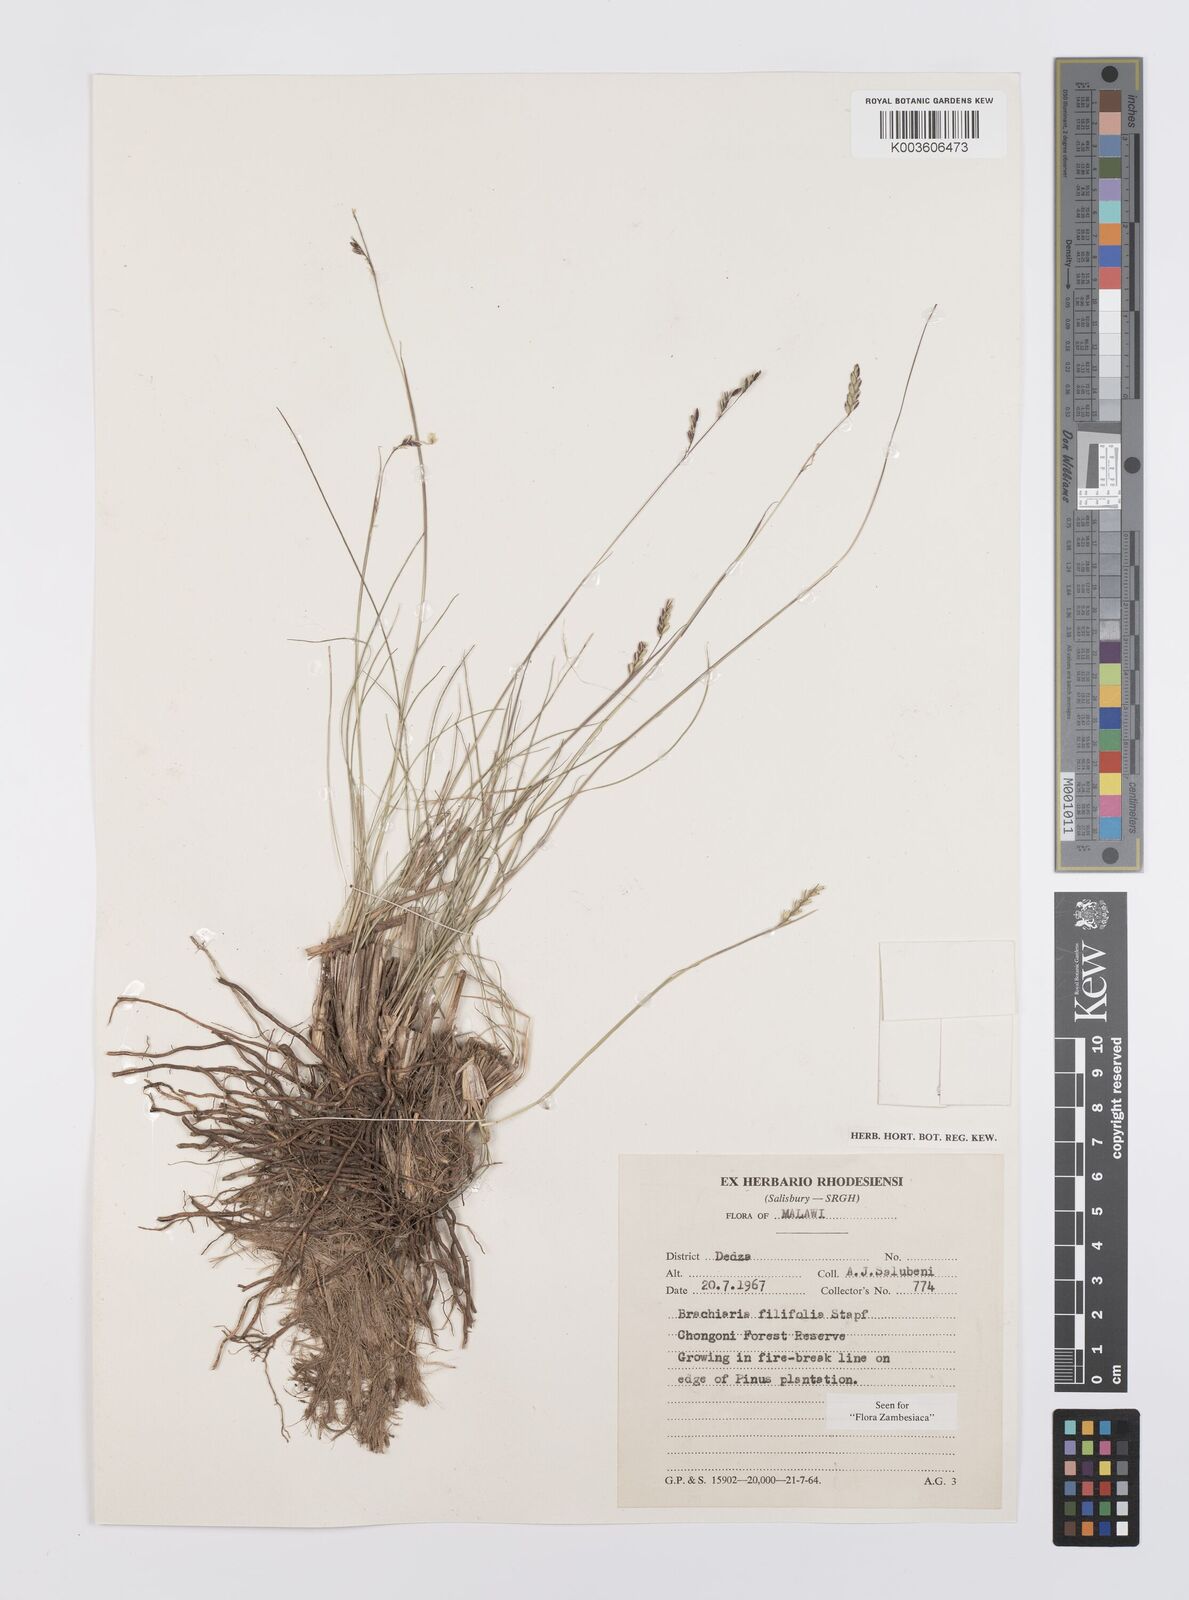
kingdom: Plantae
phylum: Tracheophyta
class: Liliopsida
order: Poales
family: Poaceae
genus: Urochloa
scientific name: Urochloa subulifolia
